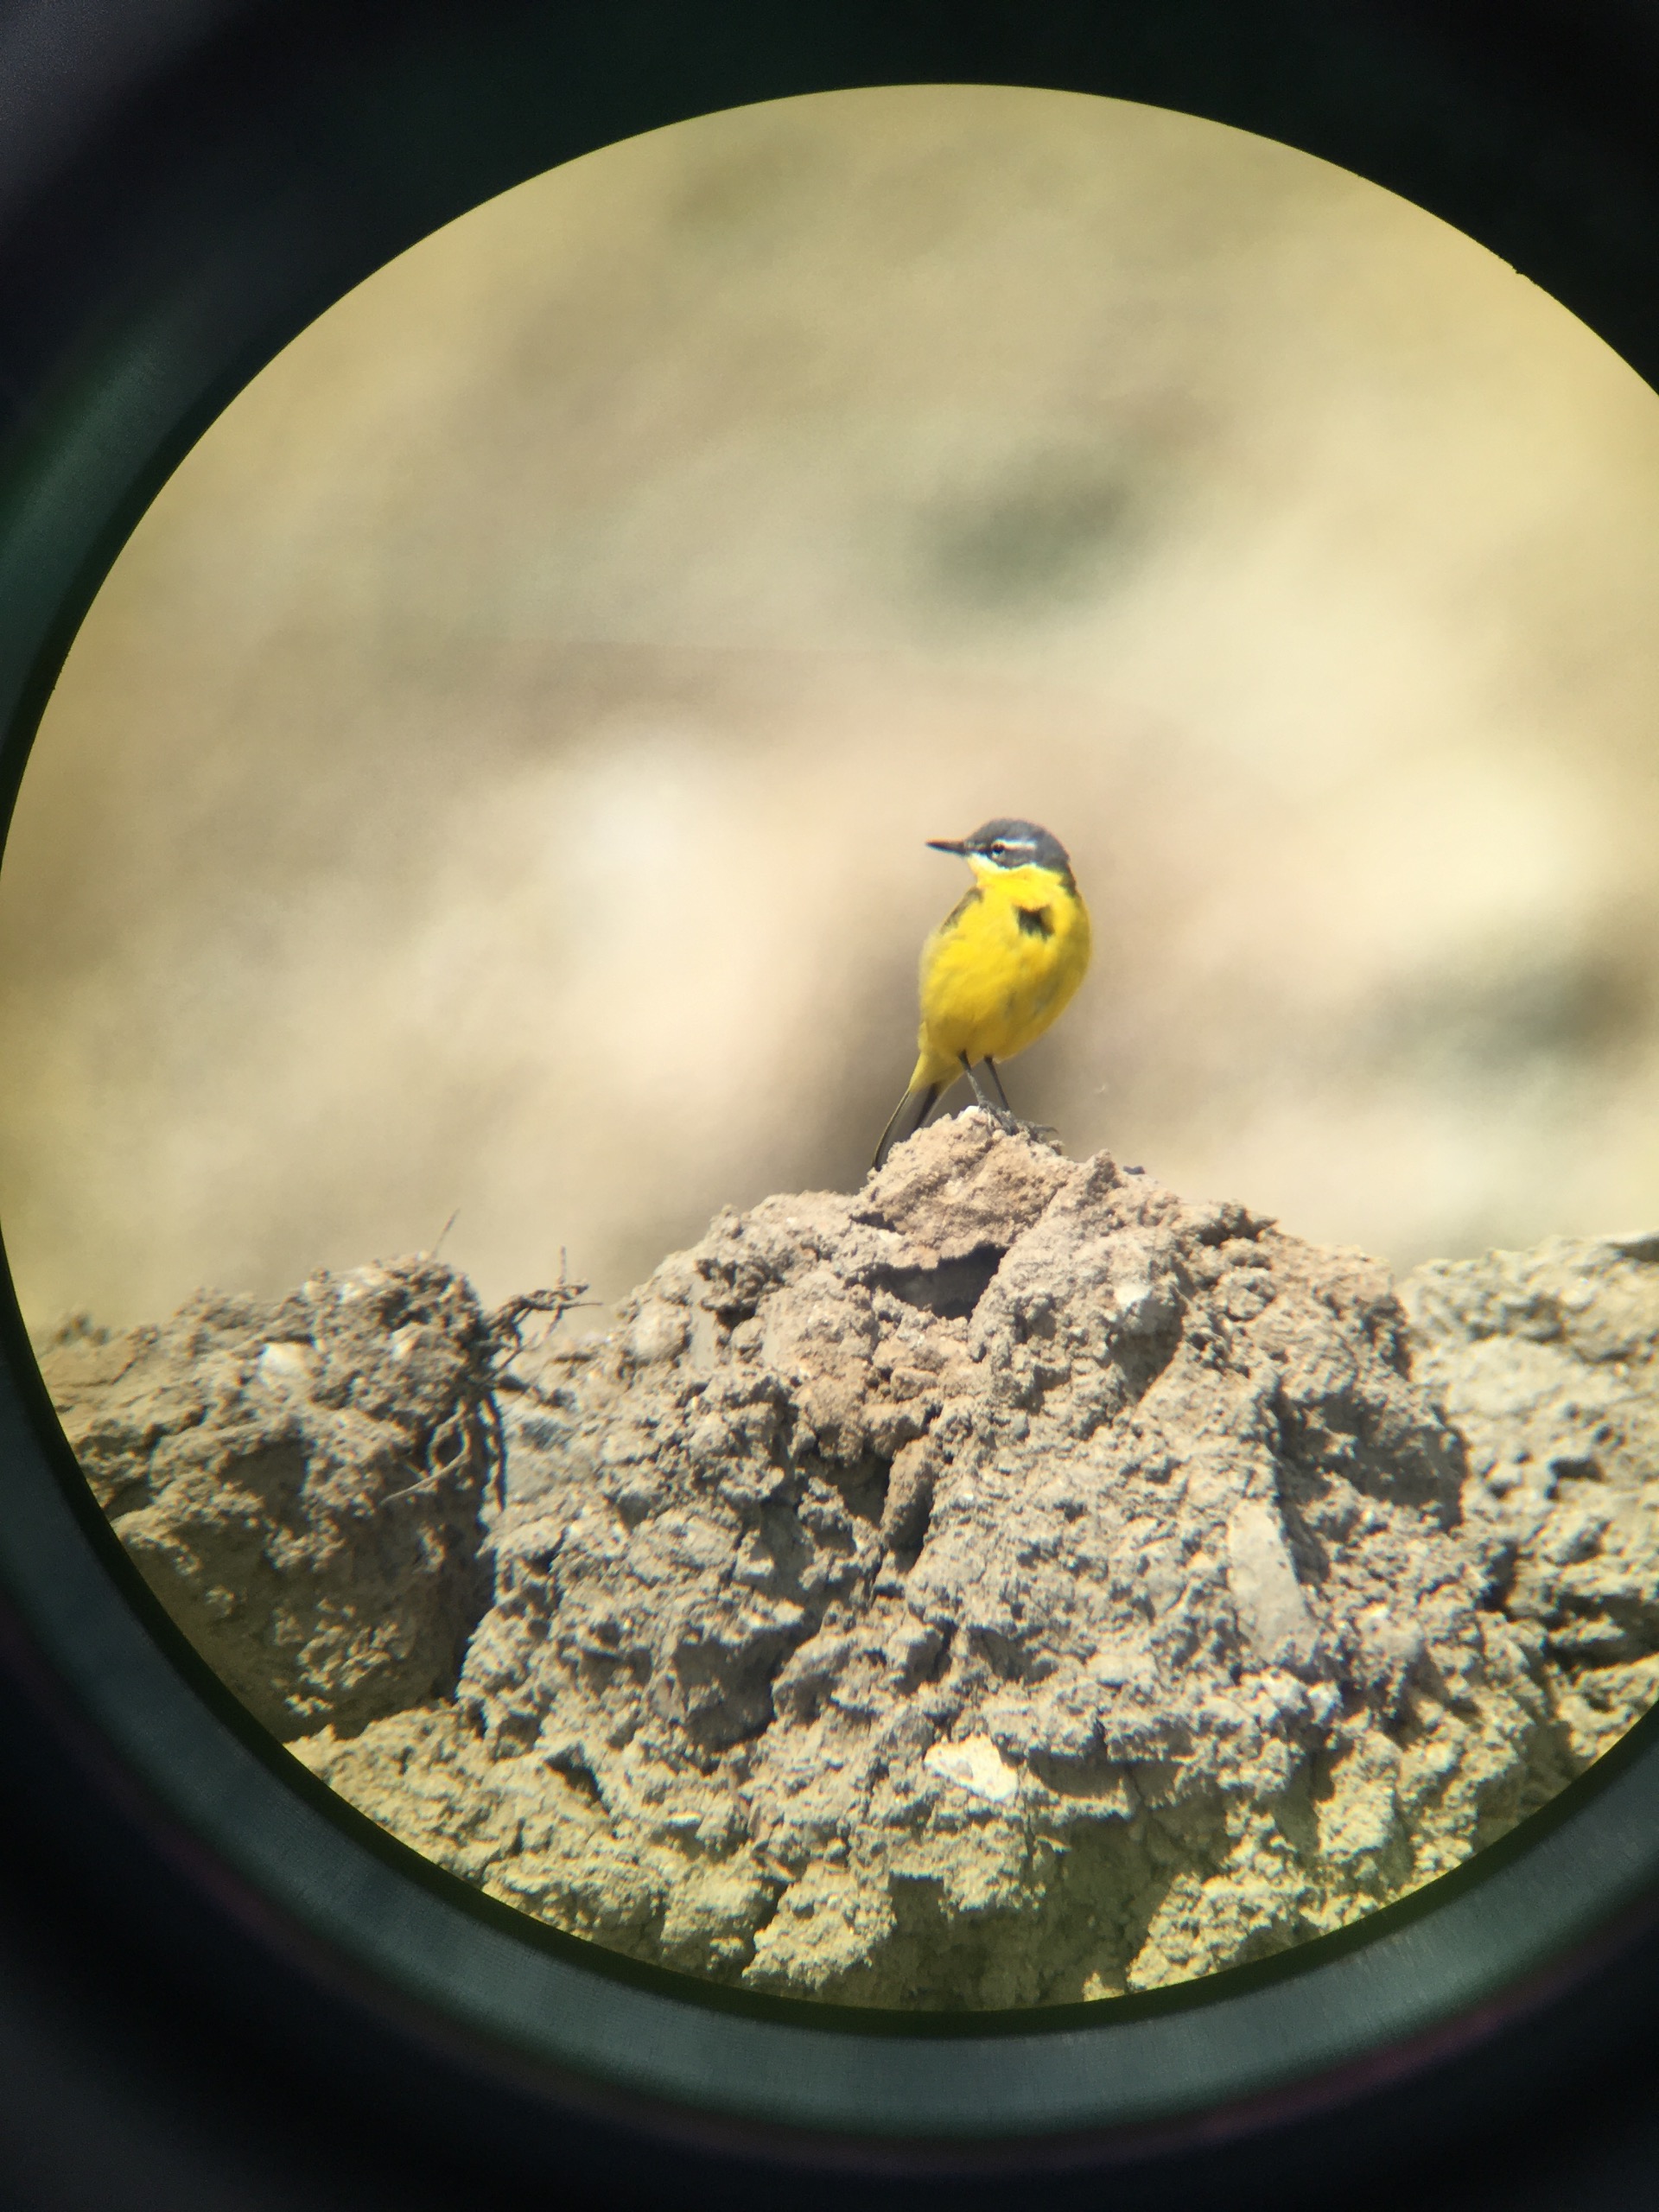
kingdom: Animalia
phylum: Chordata
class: Aves
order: Passeriformes
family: Motacillidae
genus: Motacilla
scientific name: Motacilla flava
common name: Gul vipstjert
